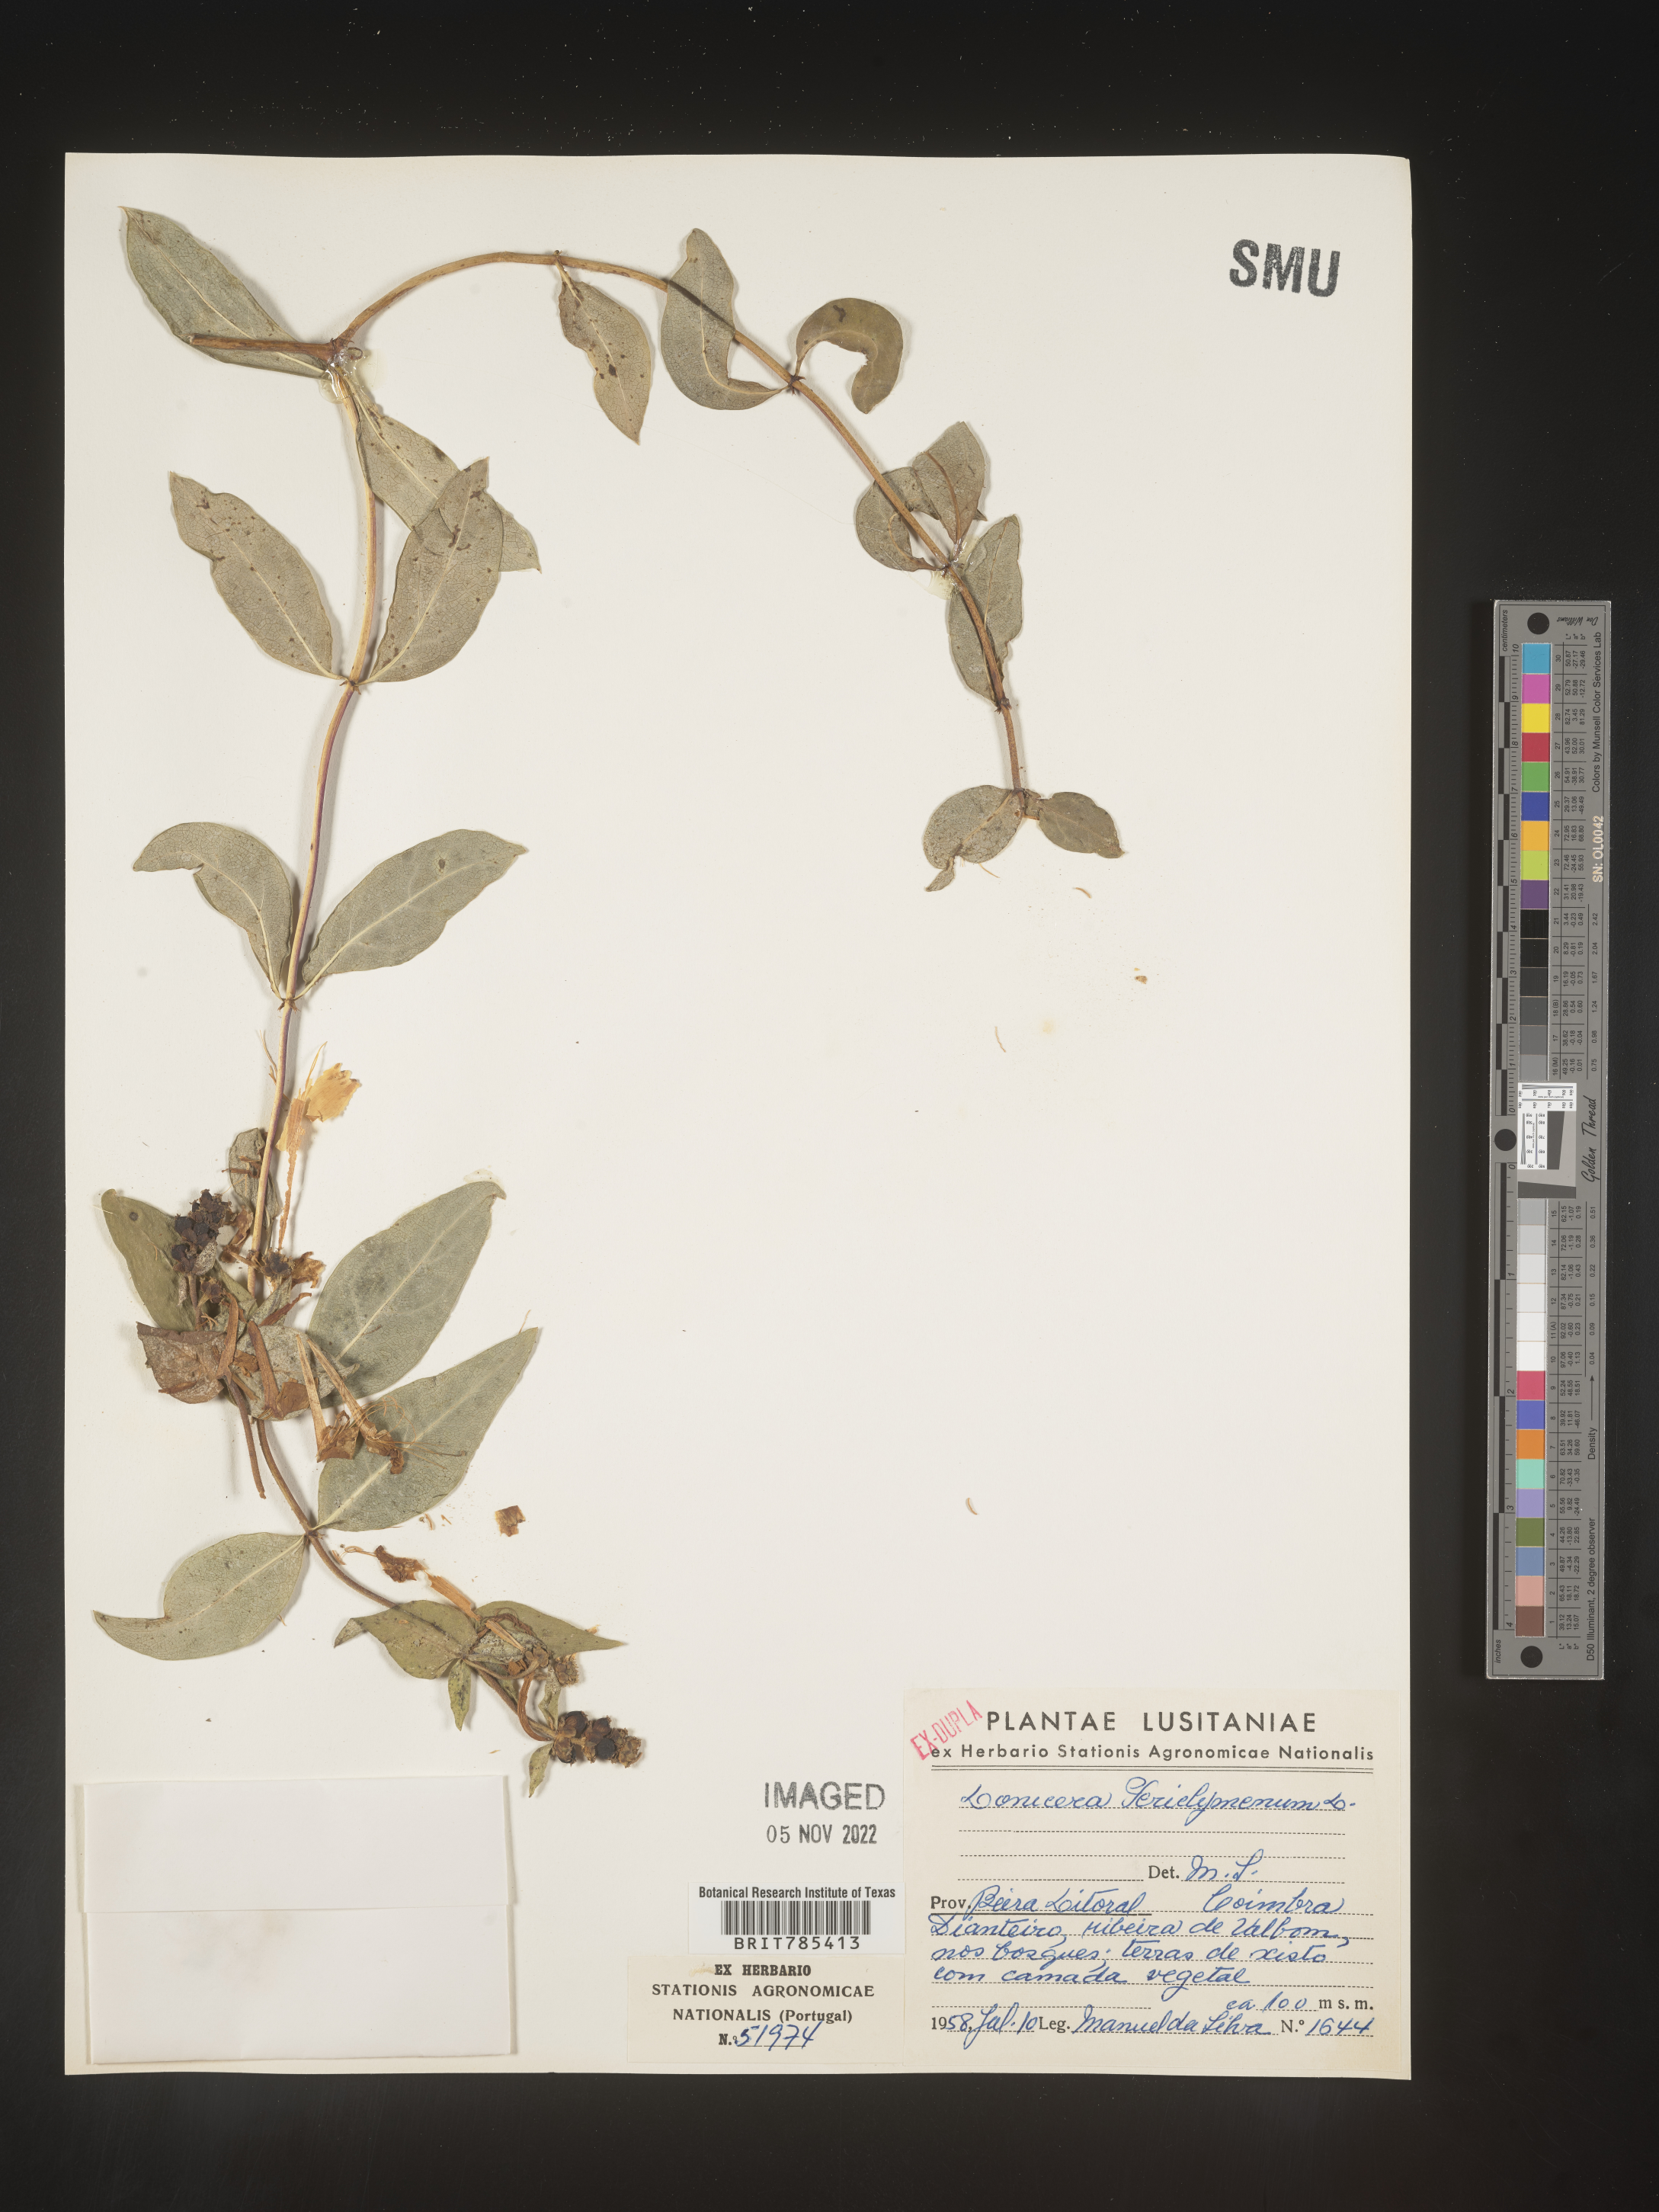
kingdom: Plantae
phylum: Tracheophyta
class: Magnoliopsida
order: Dipsacales
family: Caprifoliaceae
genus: Lonicera
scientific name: Lonicera
